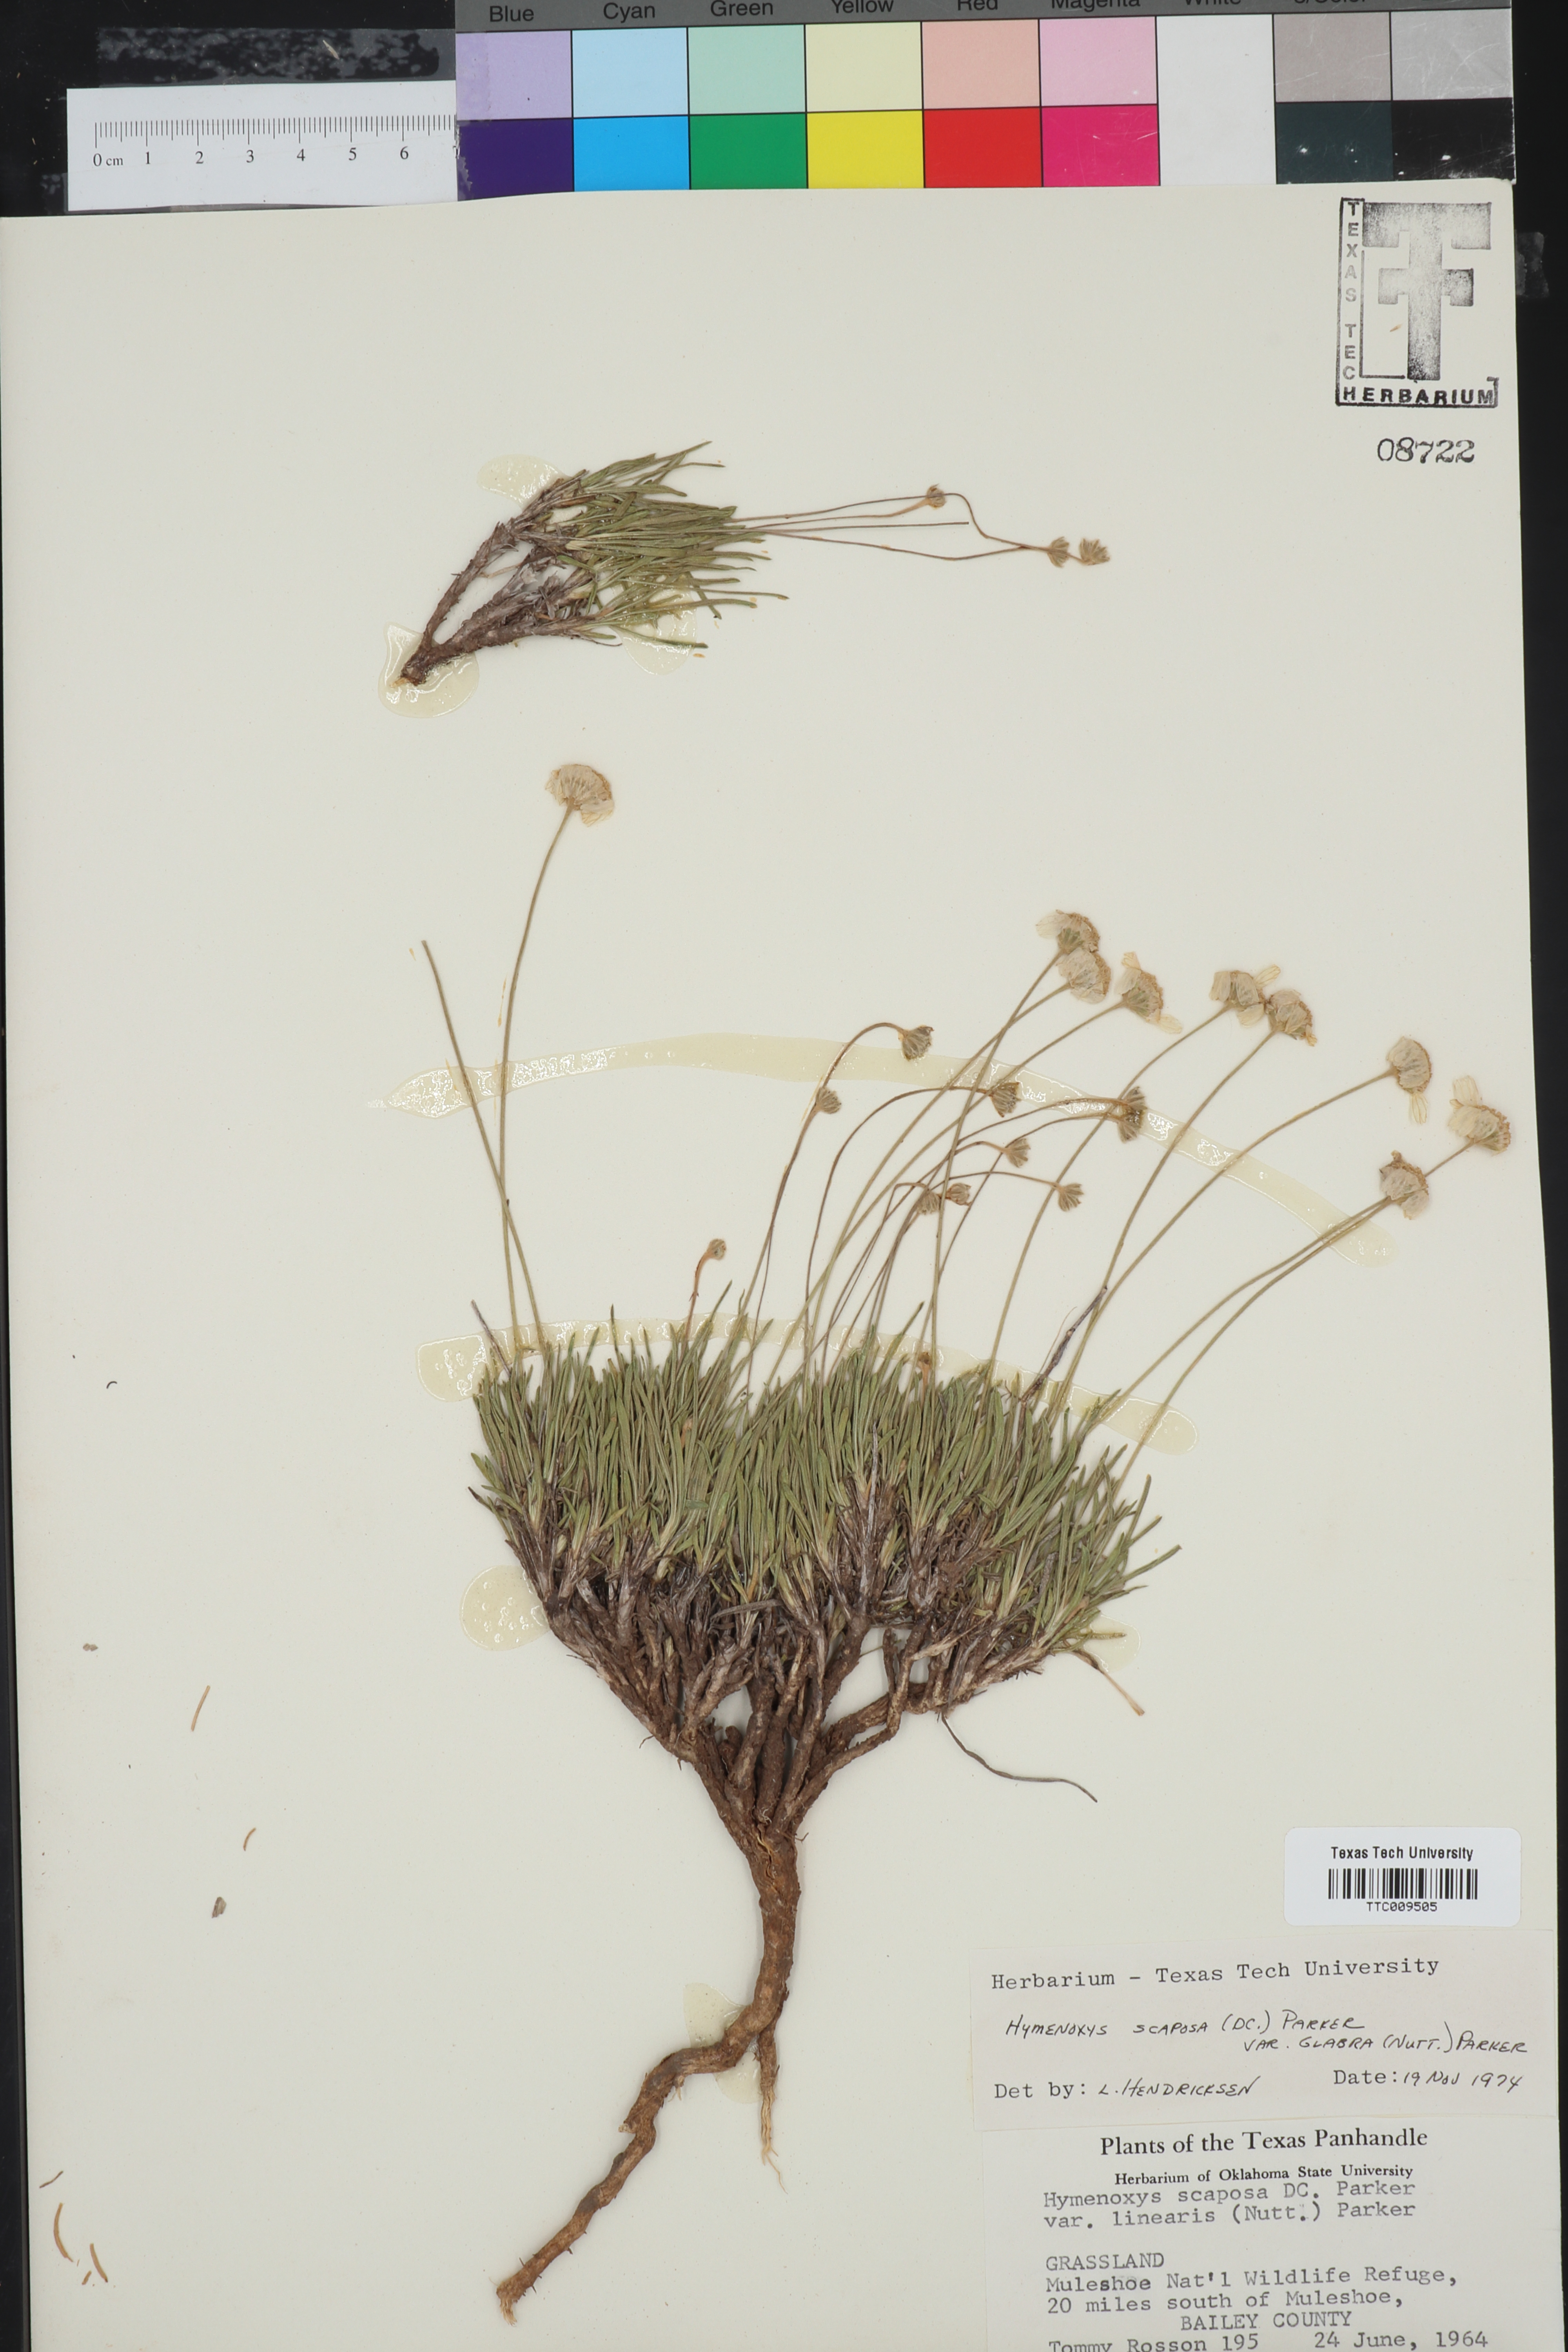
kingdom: Plantae
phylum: Tracheophyta
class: Magnoliopsida
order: Asterales
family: Asteraceae
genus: Tetraneuris
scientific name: Tetraneuris scaposa
